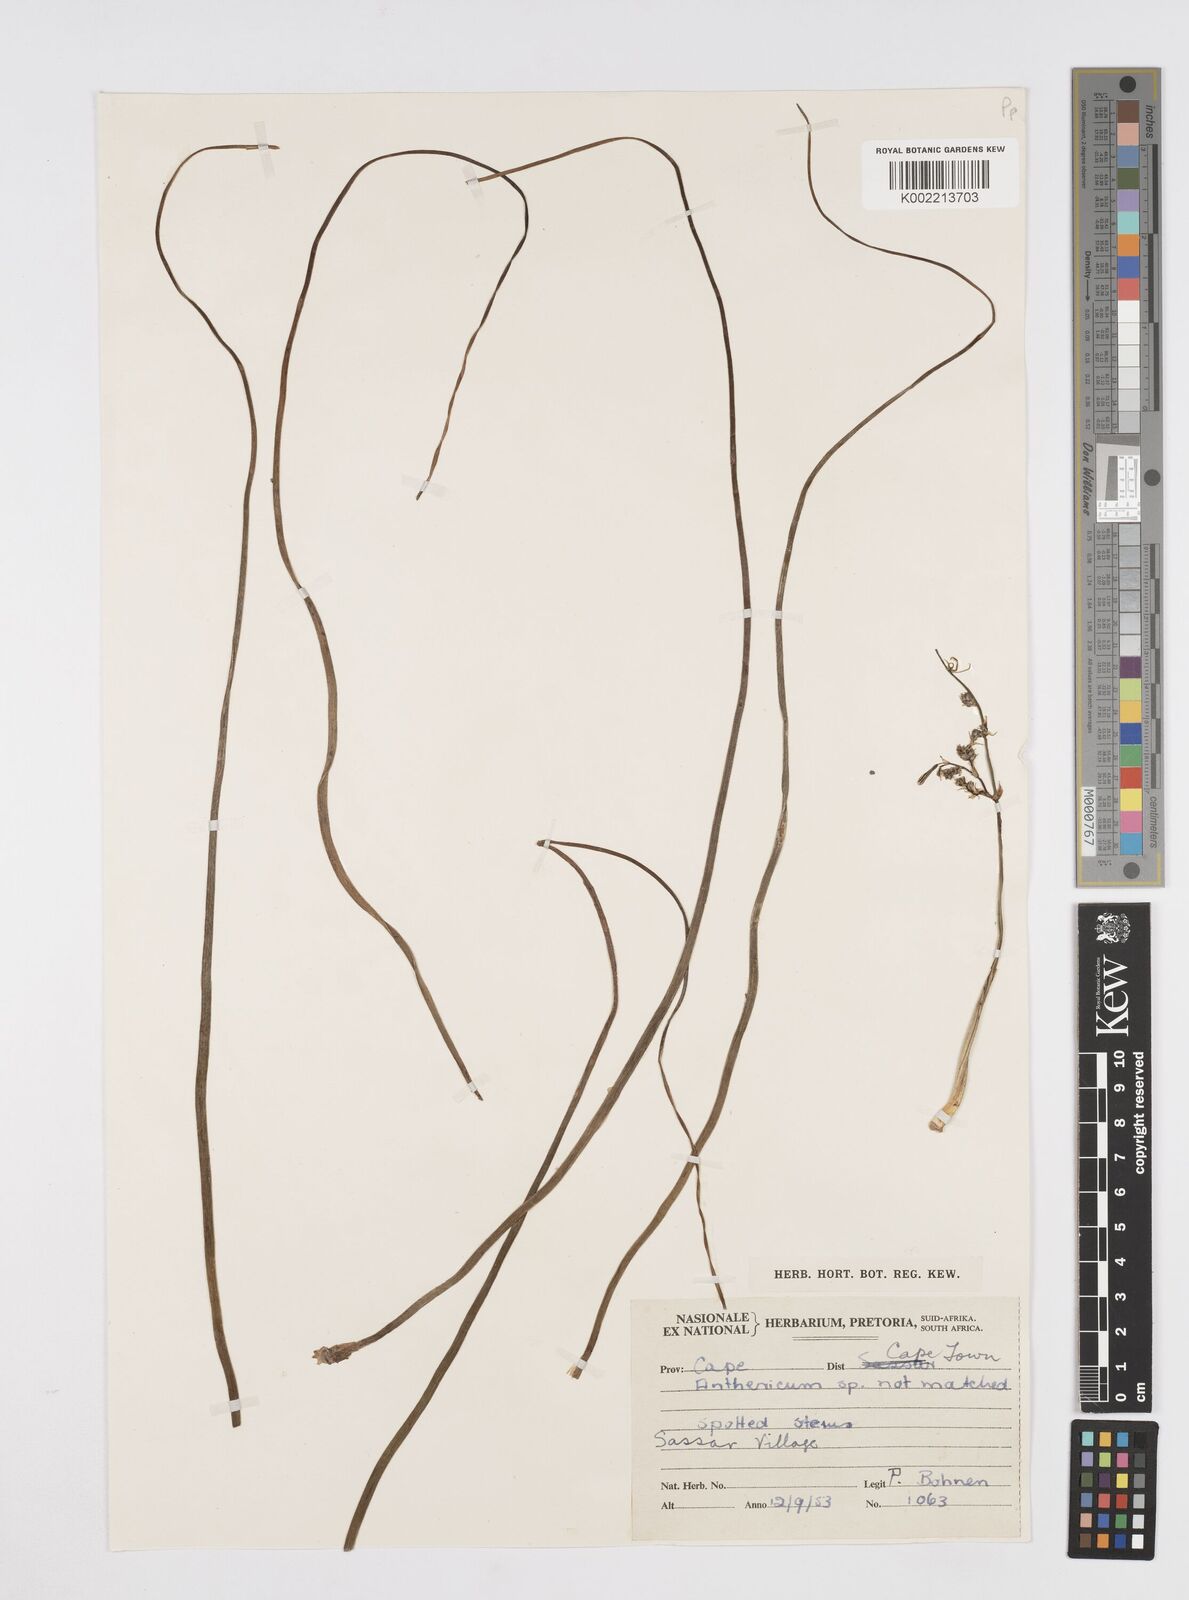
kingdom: Plantae
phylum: Tracheophyta
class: Liliopsida
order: Asparagales
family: Asphodelaceae
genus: Trachyandra
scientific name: Trachyandra filiformis
